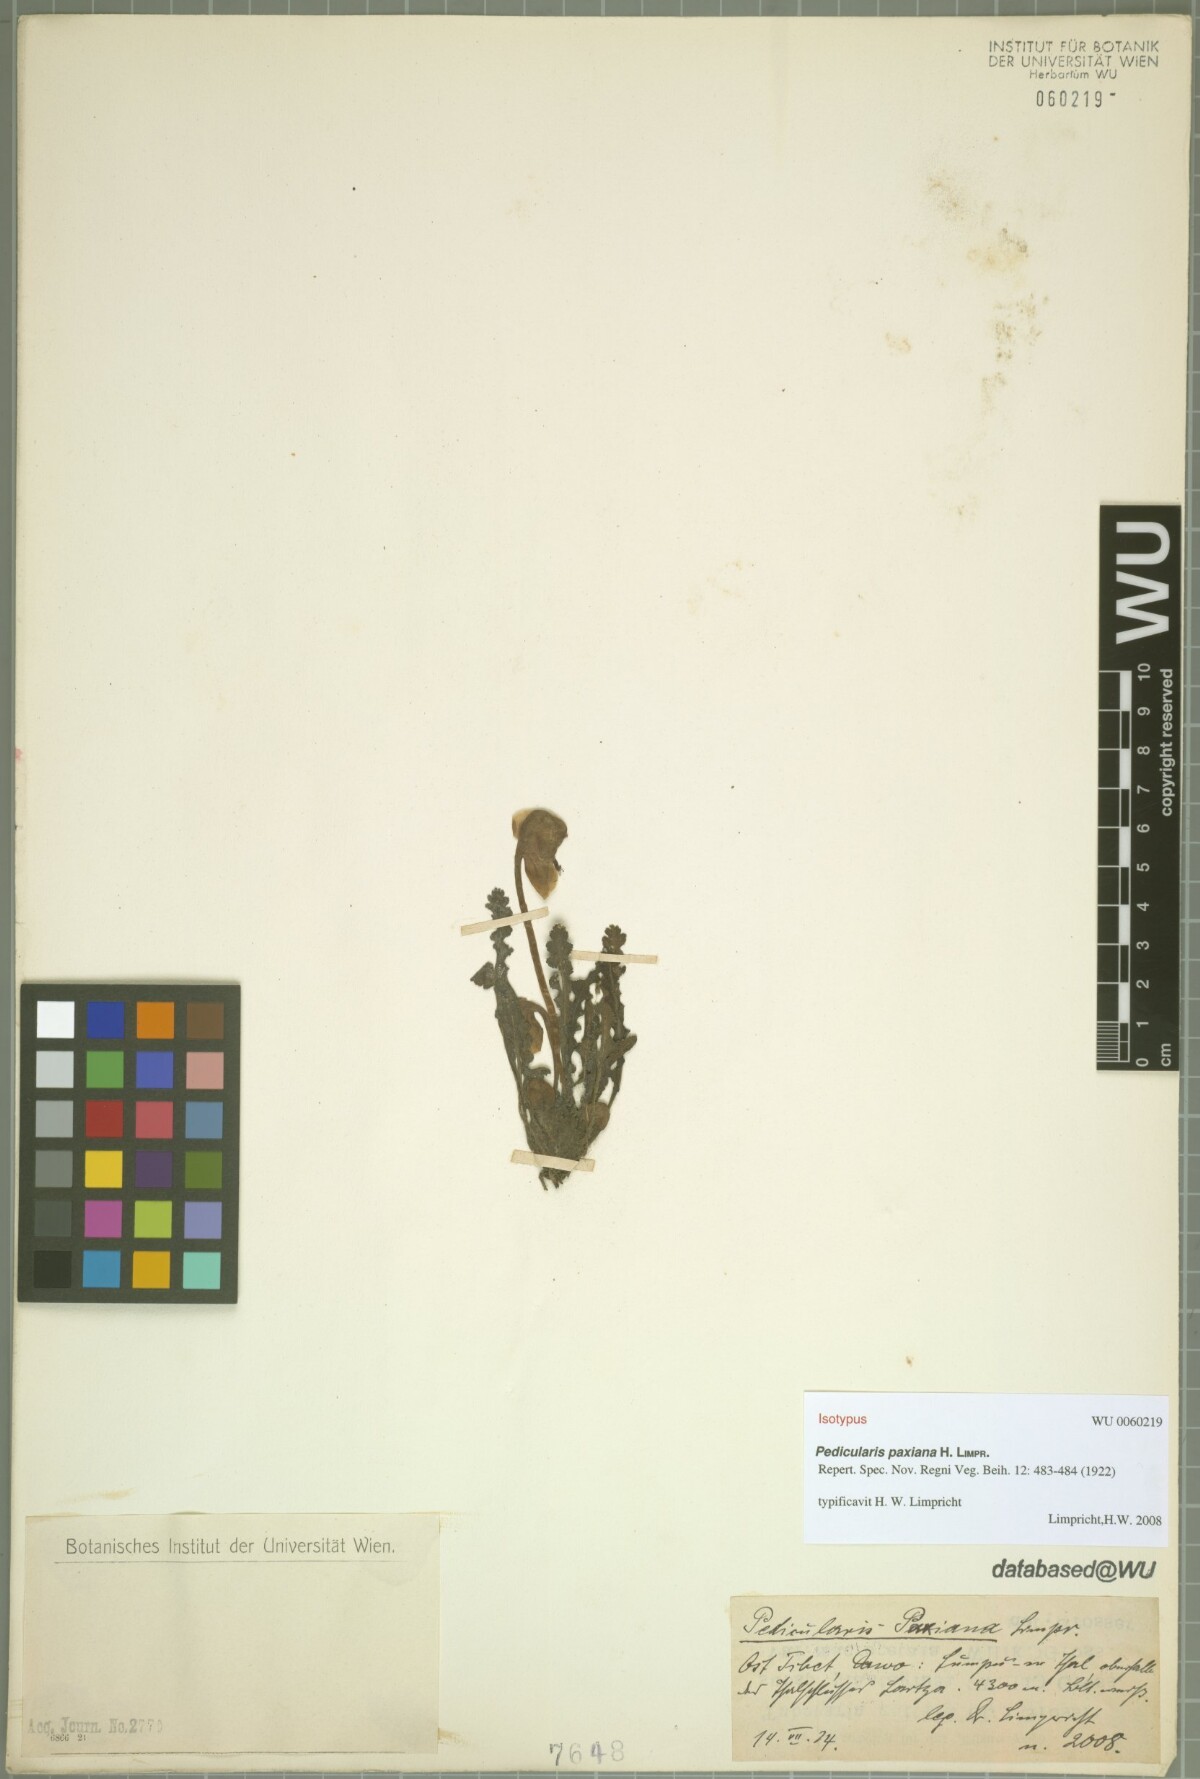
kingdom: Plantae
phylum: Tracheophyta
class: Magnoliopsida
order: Lamiales
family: Orobanchaceae
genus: Pedicularis
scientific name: Pedicularis paxiana
